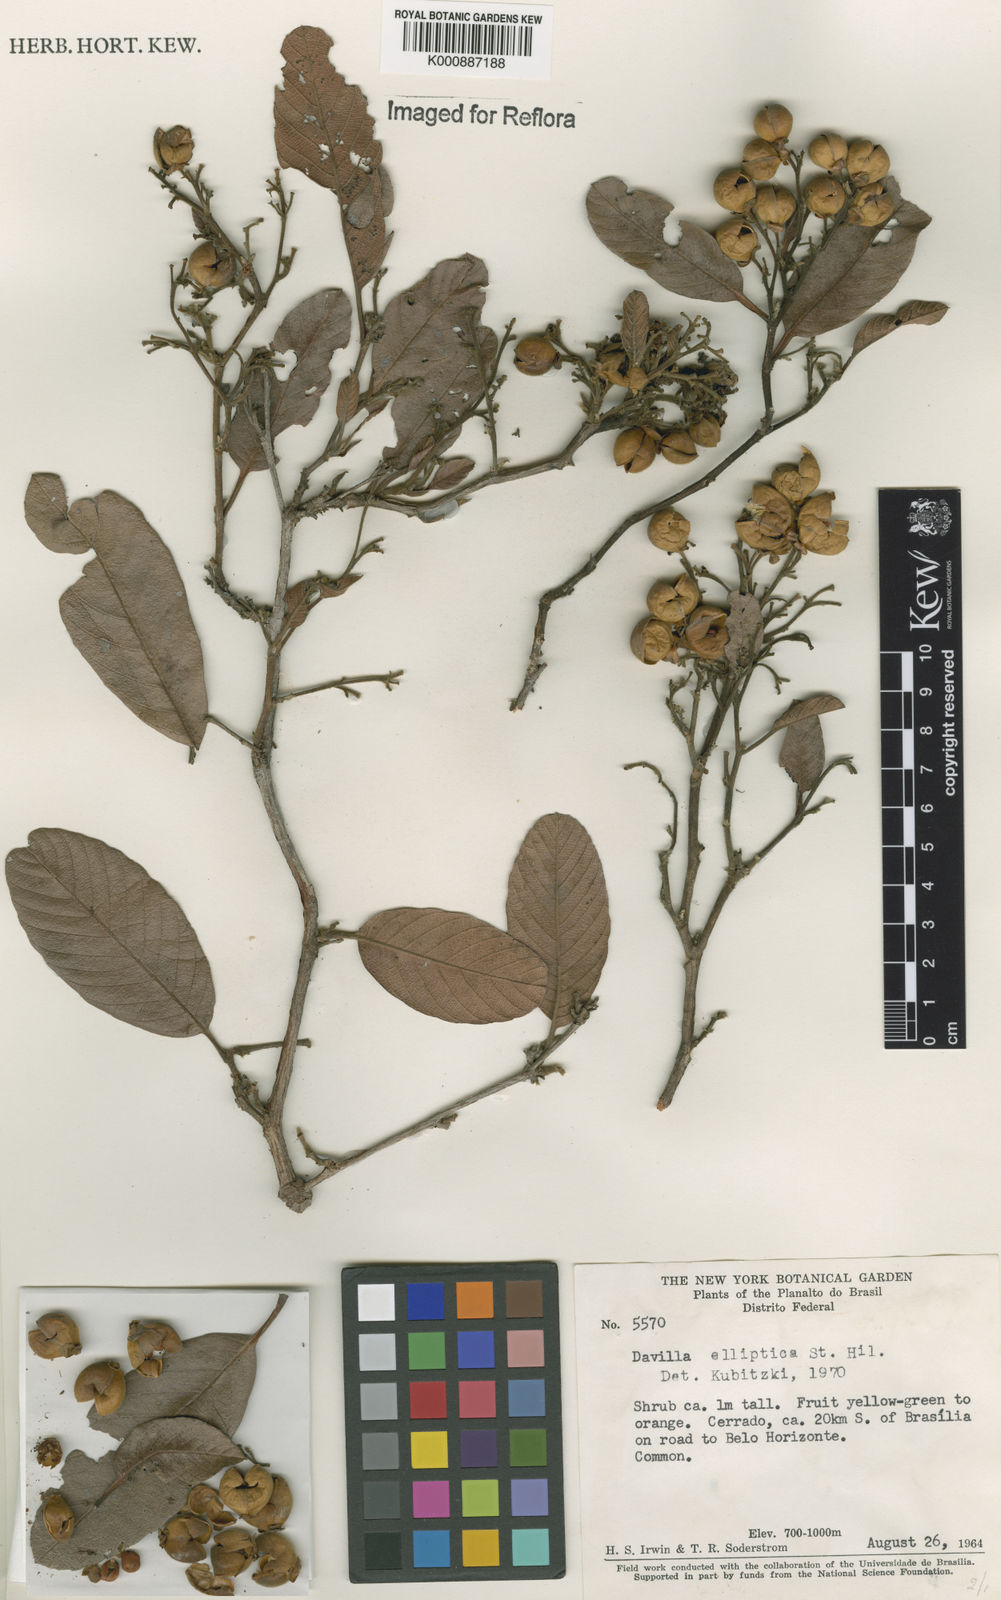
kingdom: Plantae
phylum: Tracheophyta
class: Magnoliopsida
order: Dilleniales
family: Dilleniaceae
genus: Davilla
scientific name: Davilla elliptica
